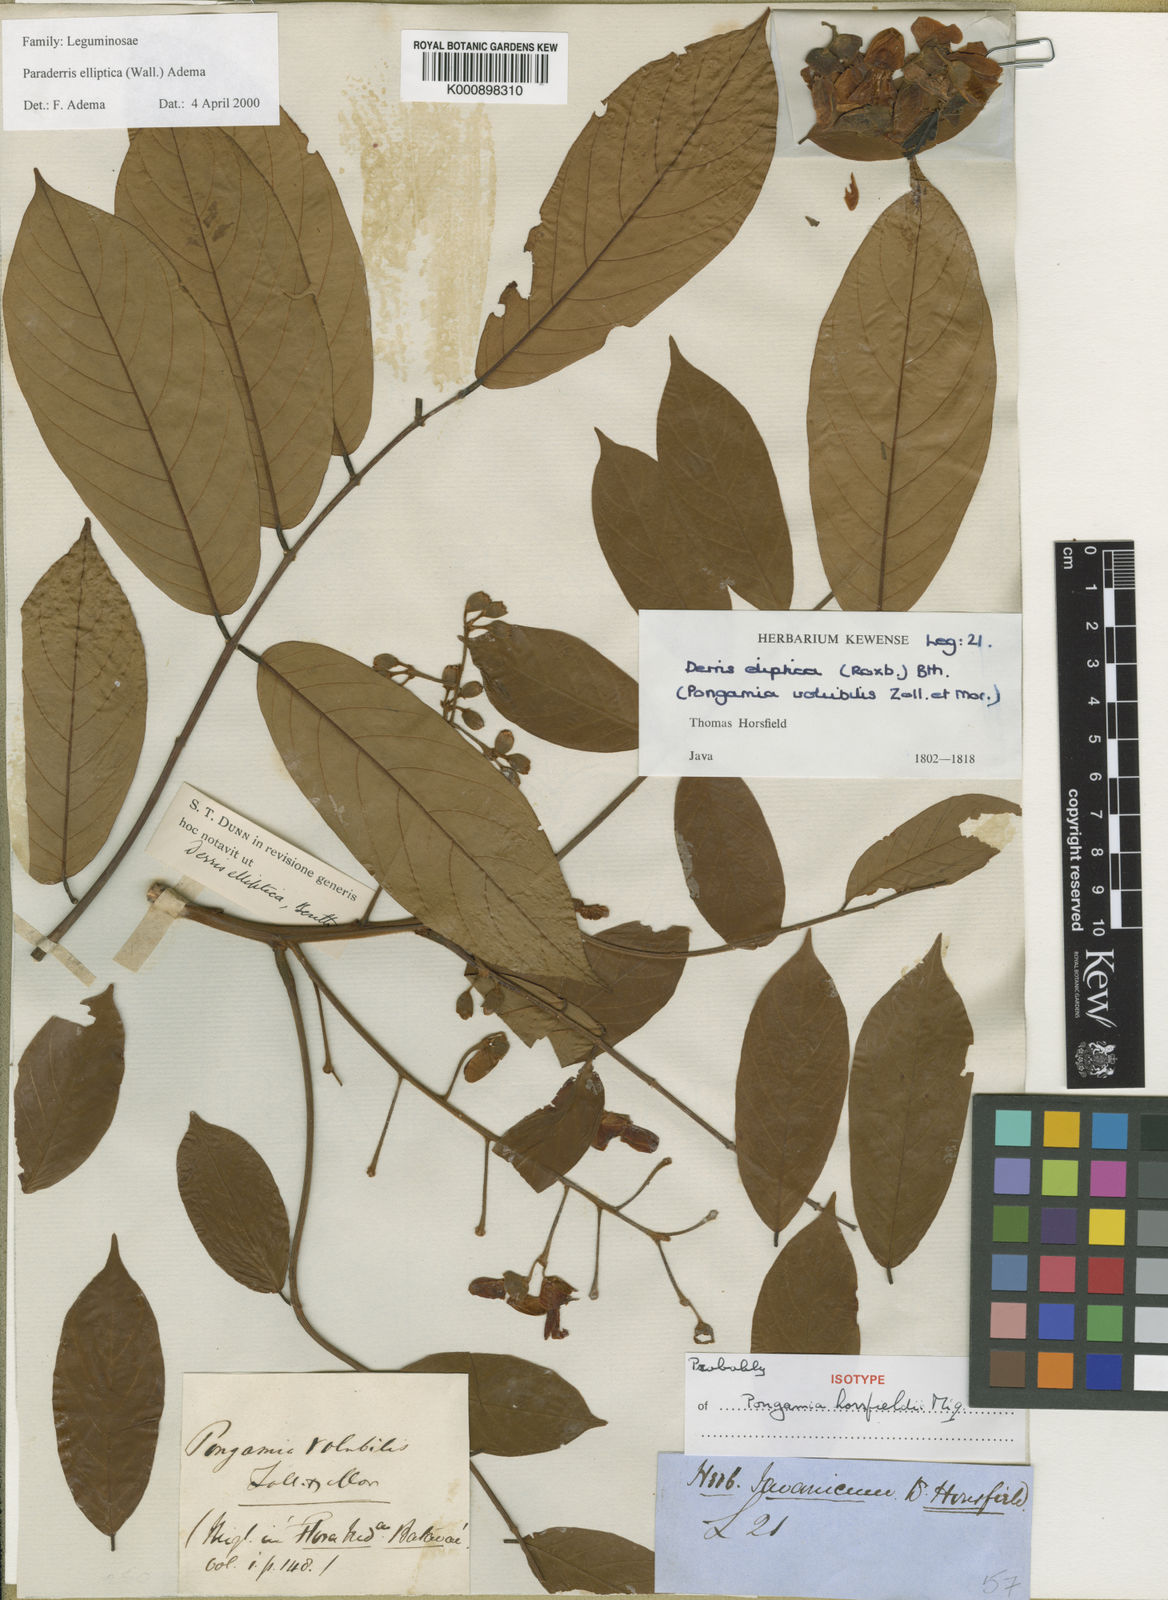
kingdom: Plantae
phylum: Tracheophyta
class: Magnoliopsida
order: Fabales
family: Fabaceae
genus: Derris
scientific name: Derris elliptica
